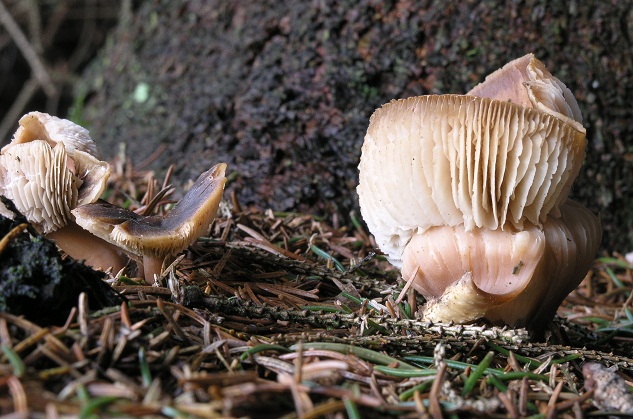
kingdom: Fungi
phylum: Basidiomycota
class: Agaricomycetes
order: Agaricales
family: Omphalotaceae
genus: Rhodocollybia
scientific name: Rhodocollybia asema
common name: horngrå fladhat
